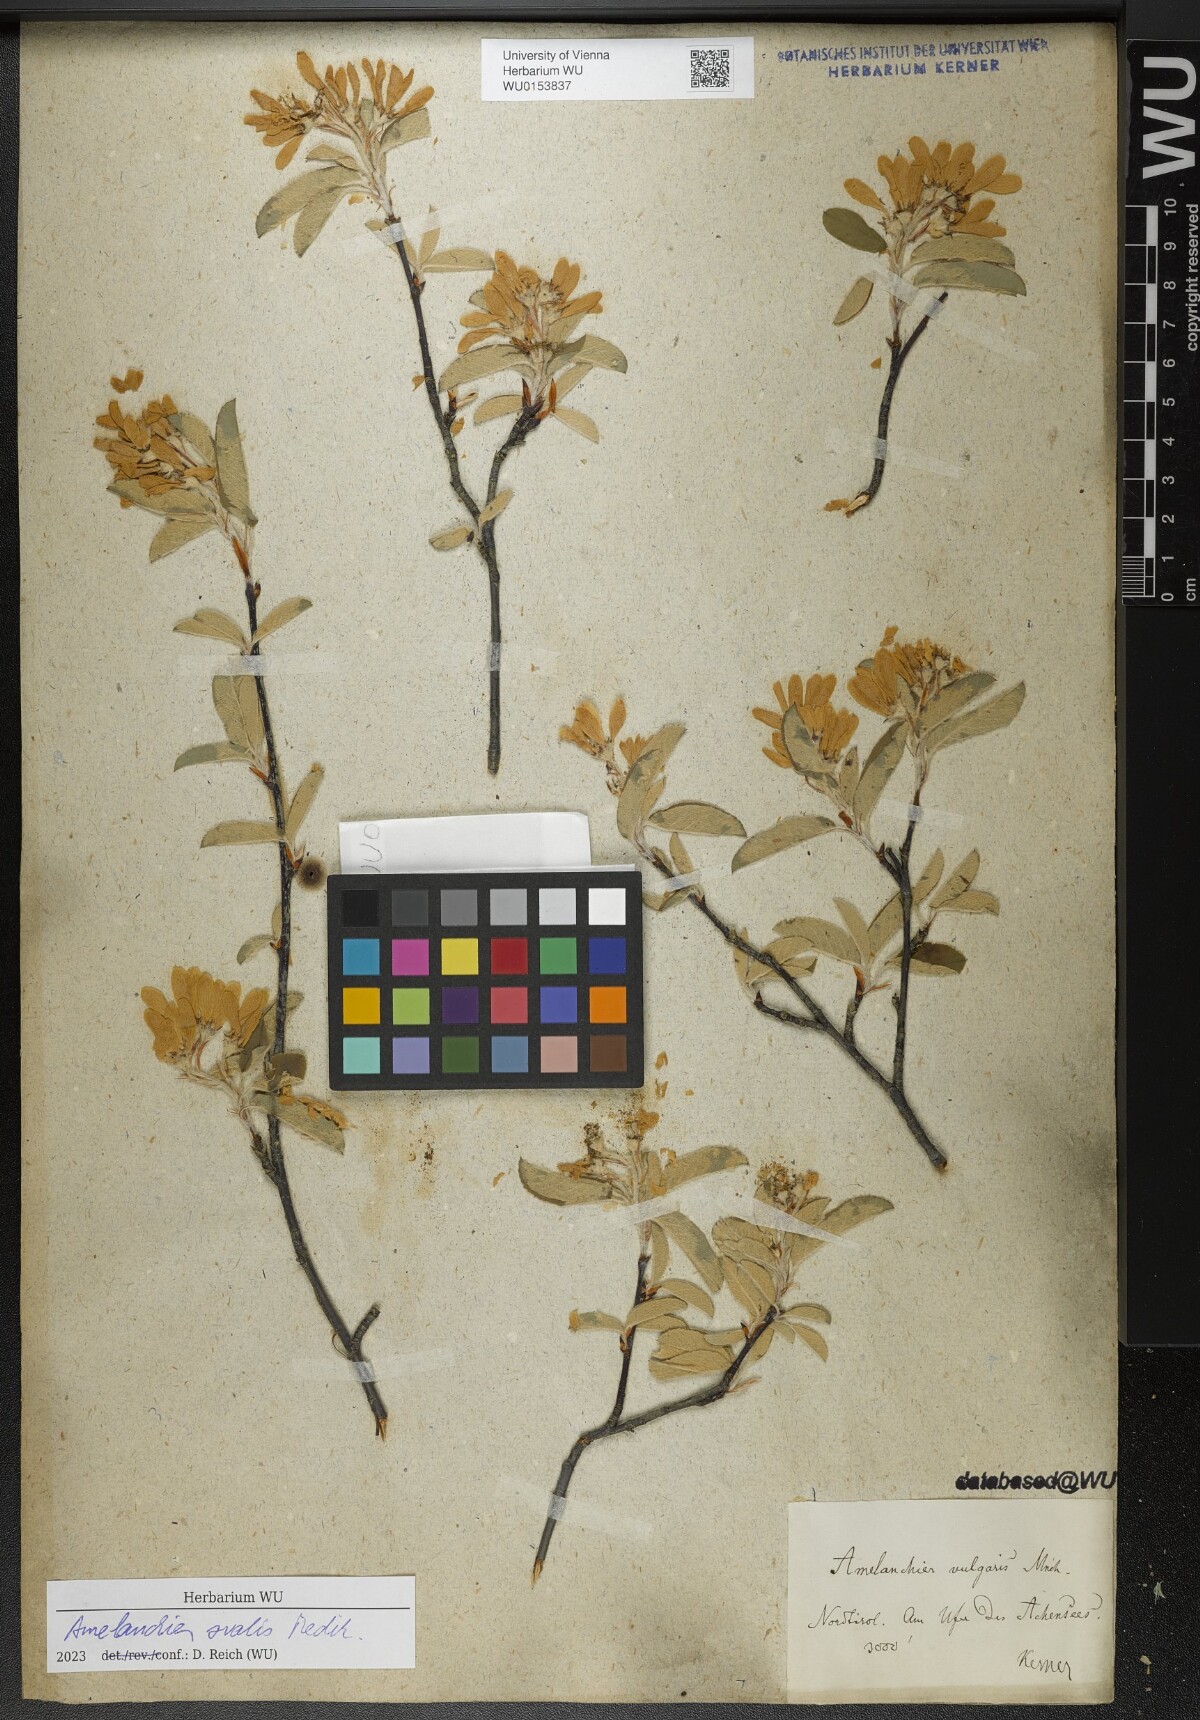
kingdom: Plantae
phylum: Tracheophyta
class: Magnoliopsida
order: Rosales
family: Rosaceae
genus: Amelanchier
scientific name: Amelanchier ovalis
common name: Serviceberry
